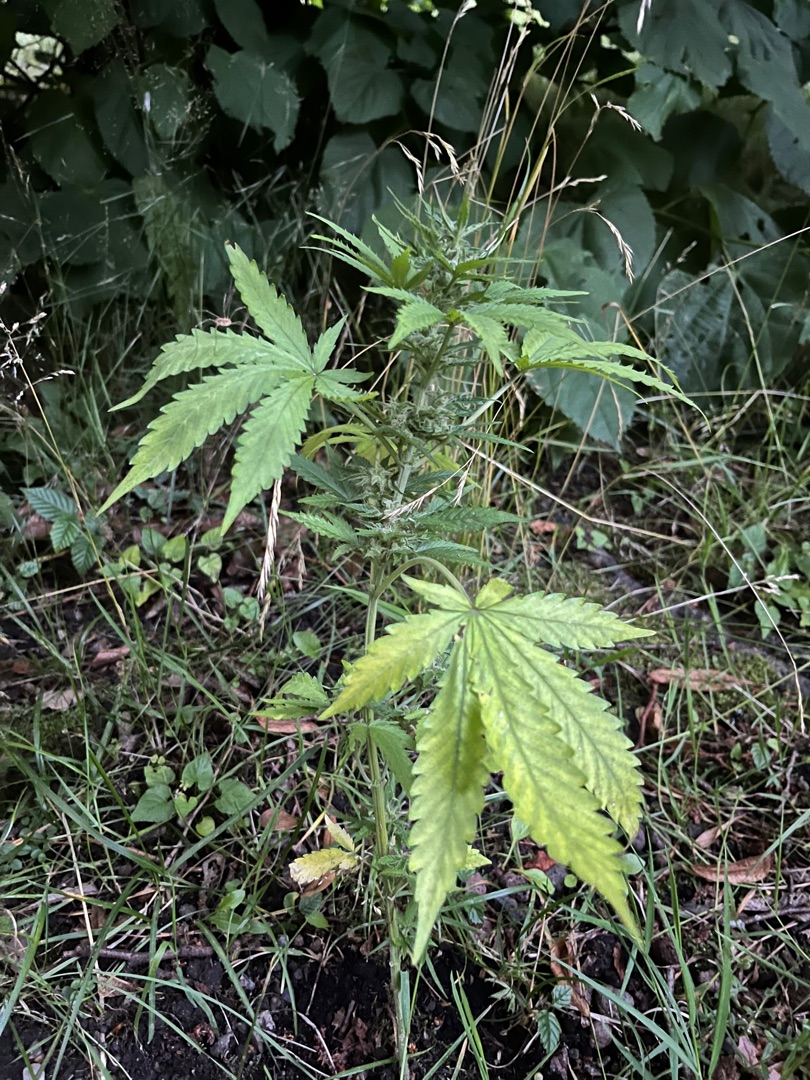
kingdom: Plantae
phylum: Tracheophyta
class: Magnoliopsida
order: Rosales
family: Cannabaceae
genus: Cannabis
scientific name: Cannabis sativa
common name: Hamp
